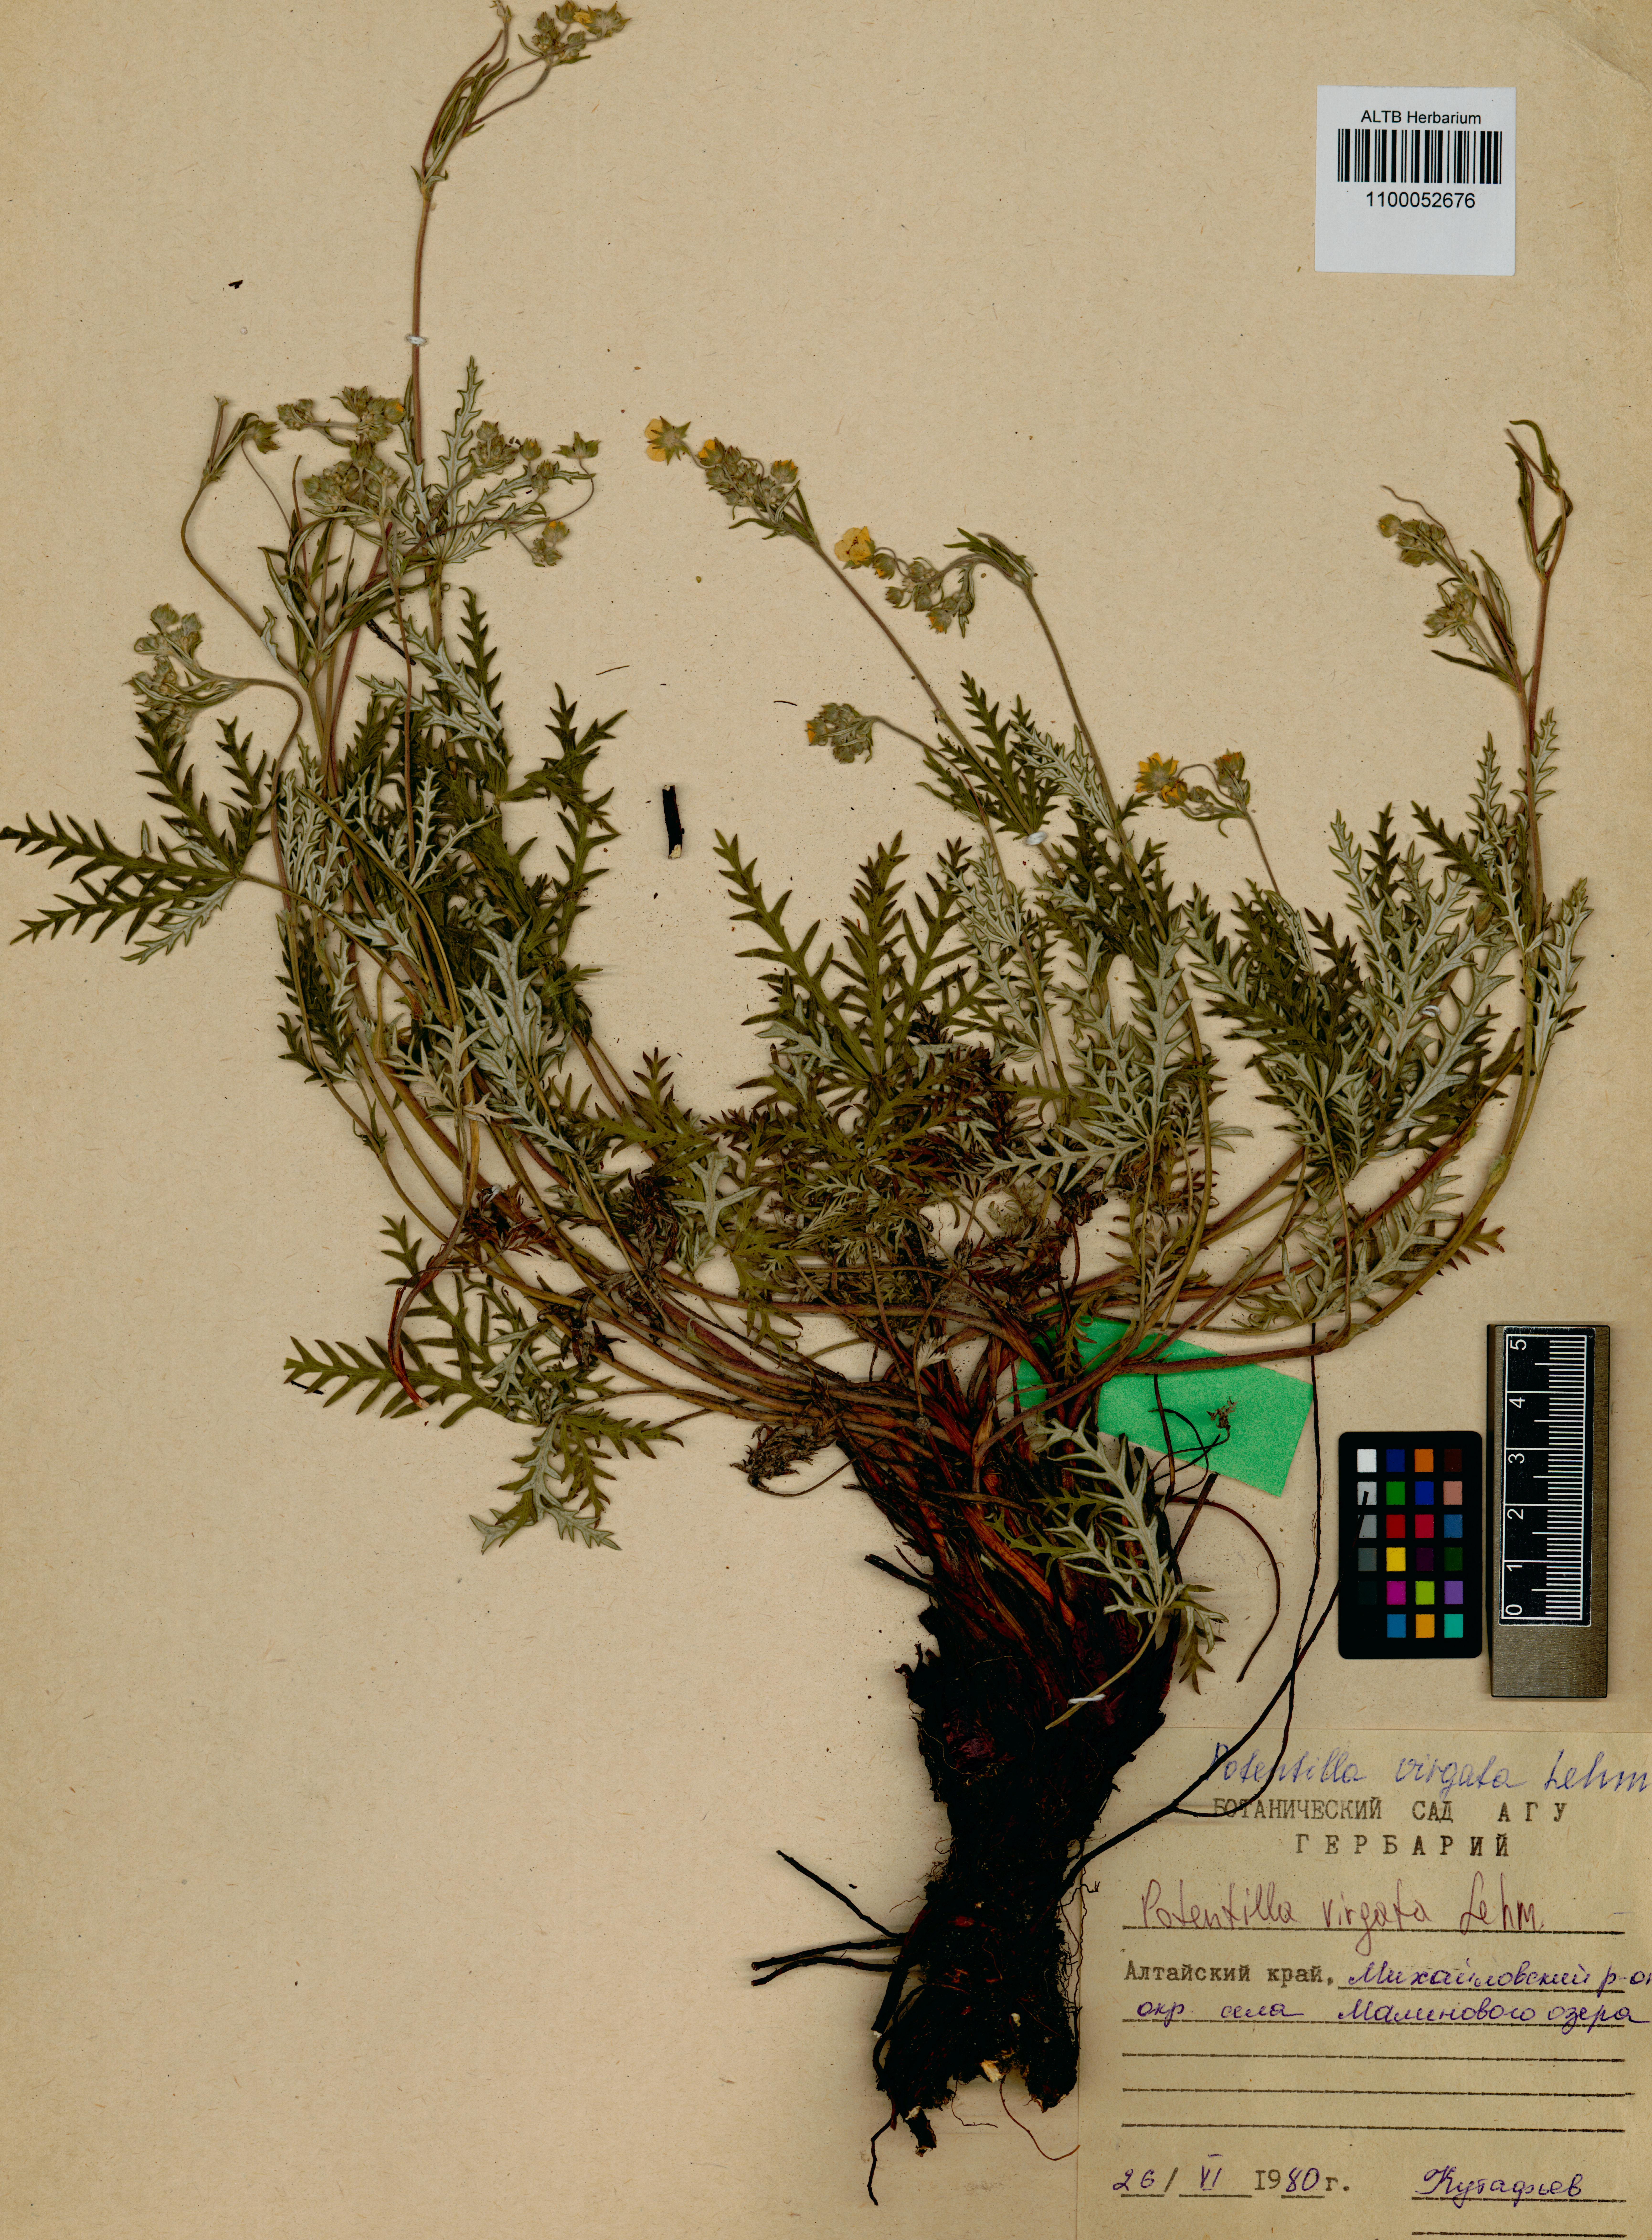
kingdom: Plantae
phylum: Tracheophyta
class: Magnoliopsida
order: Rosales
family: Rosaceae
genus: Potentilla
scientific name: Potentilla virgata
